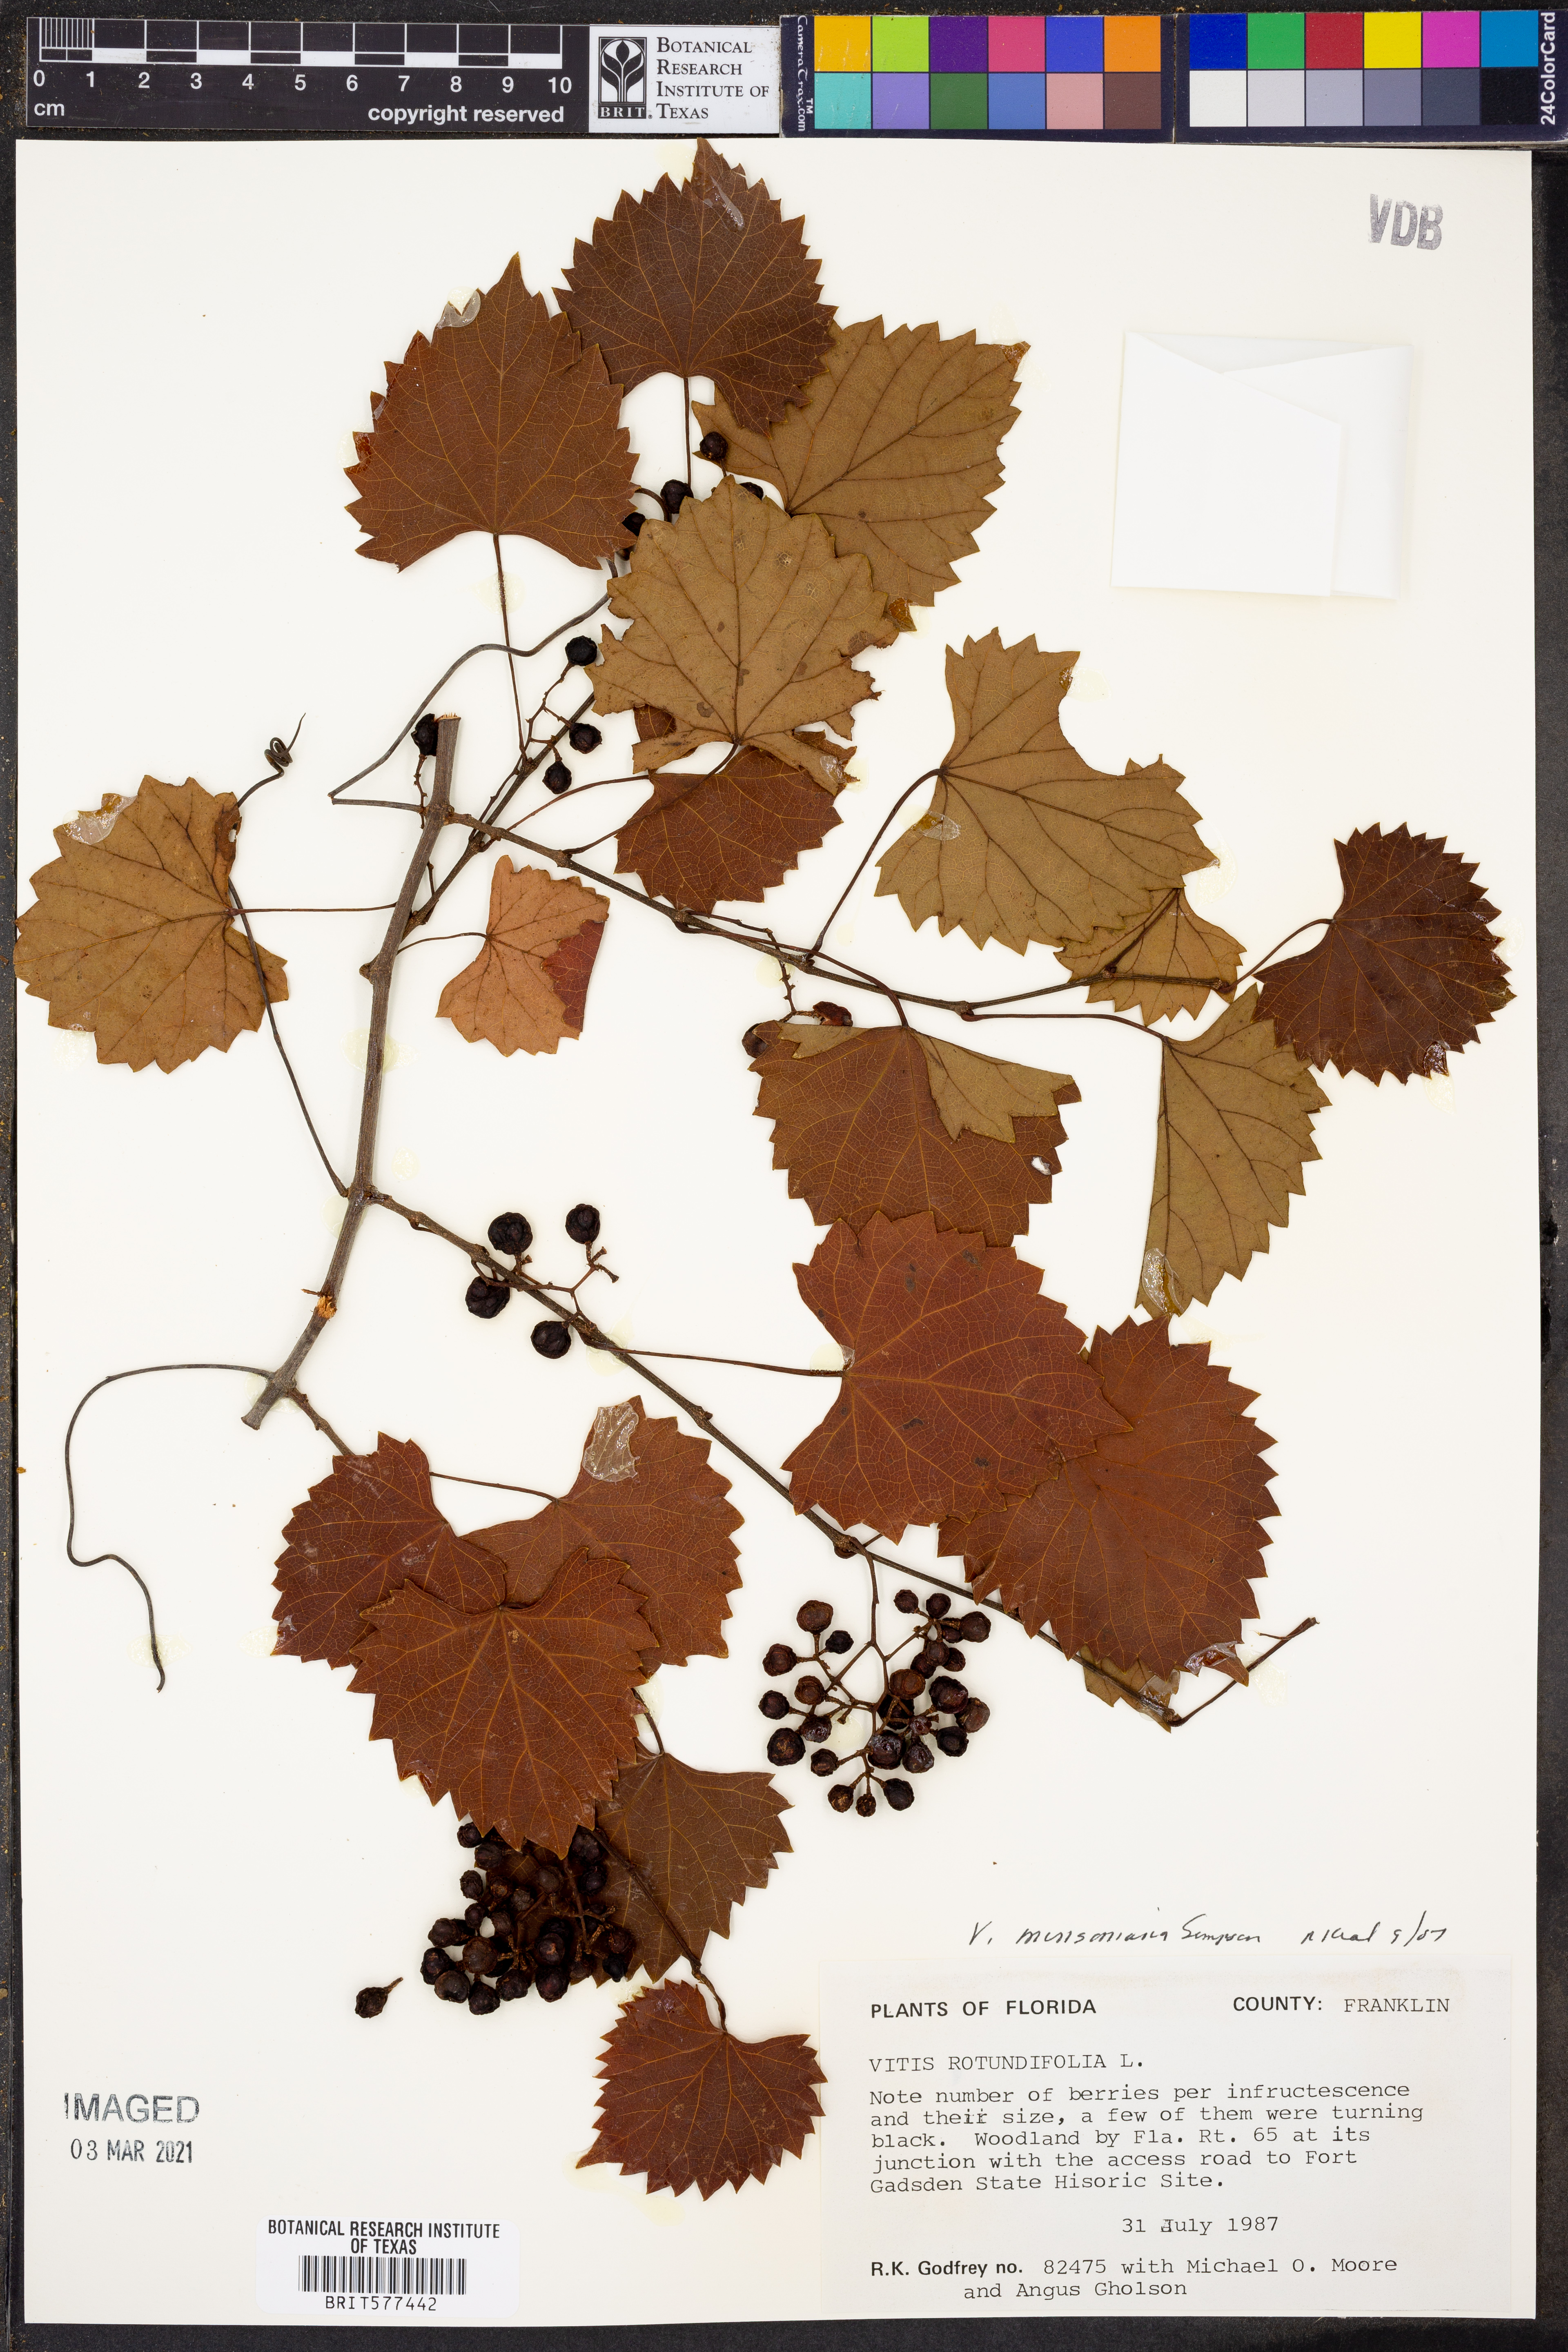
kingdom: Plantae
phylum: Tracheophyta
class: Magnoliopsida
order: Vitales
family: Vitaceae
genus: Vitis
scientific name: Vitis rotundifolia
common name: Muscadine grape
